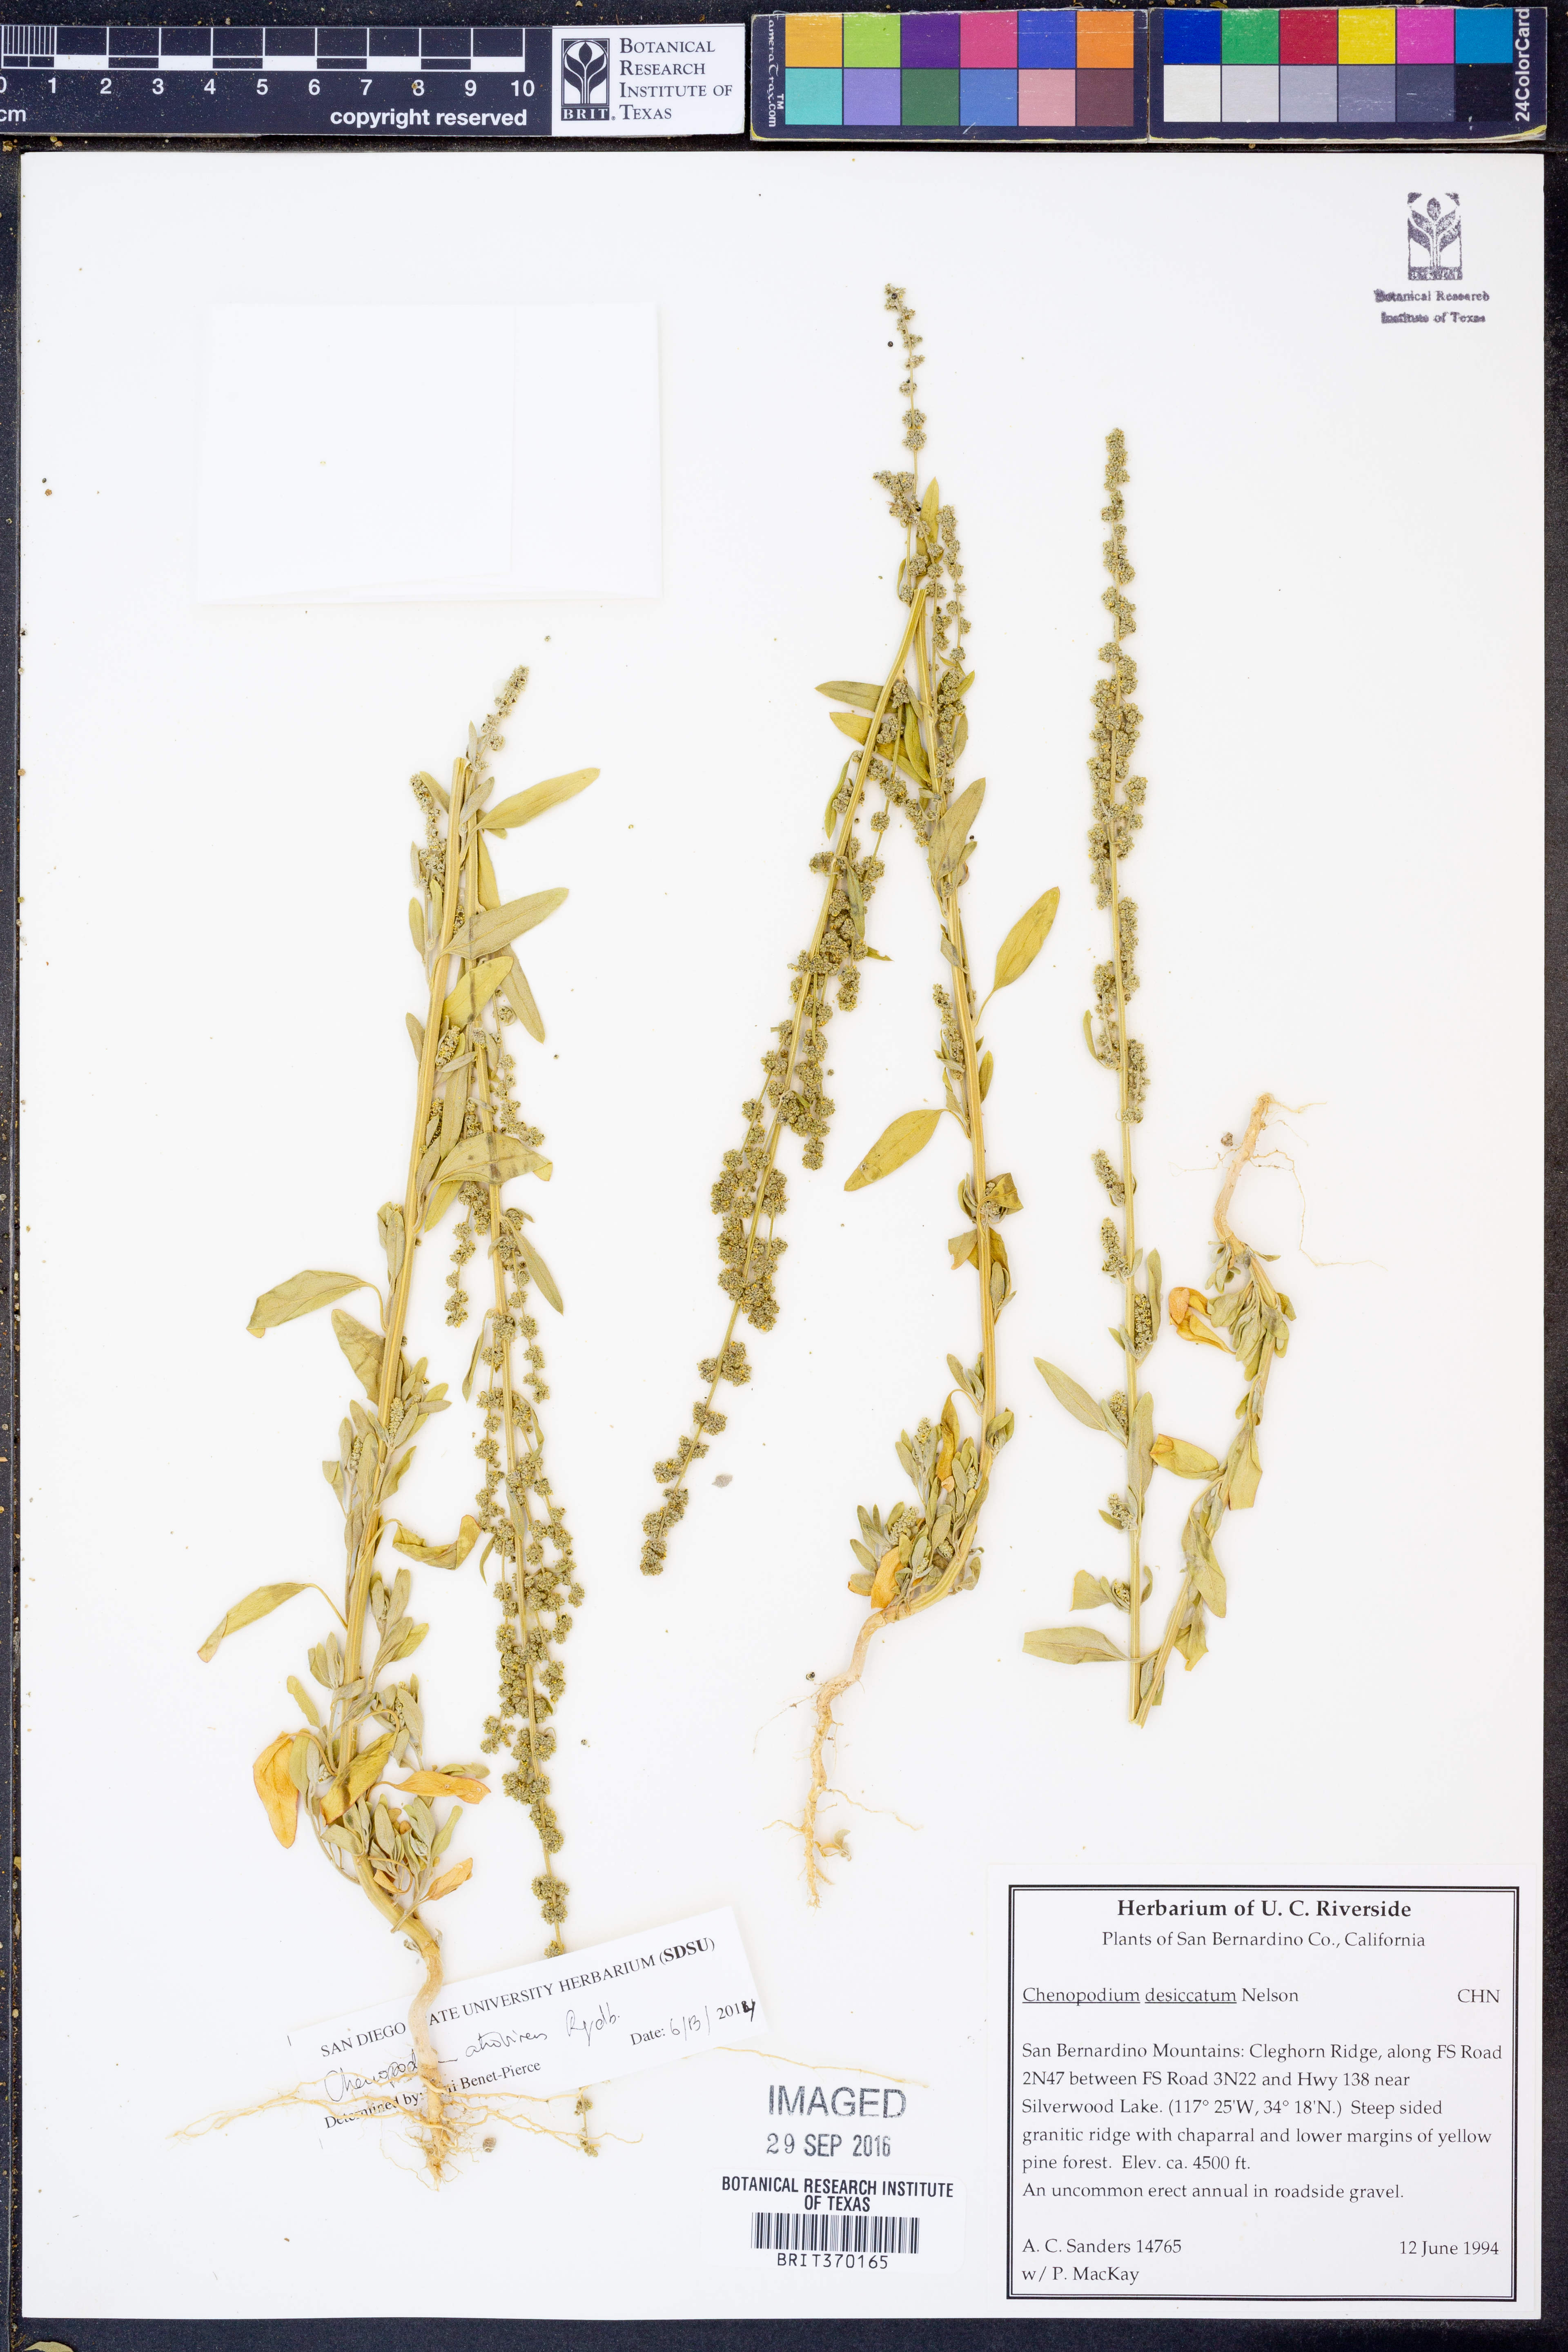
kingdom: Plantae
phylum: Tracheophyta
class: Magnoliopsida
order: Caryophyllales
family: Amaranthaceae
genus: Chenopodium
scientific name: Chenopodium atrovirens
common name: Dark goosefoot
